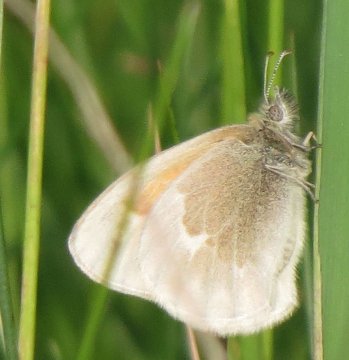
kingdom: Animalia
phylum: Arthropoda
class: Insecta
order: Lepidoptera
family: Nymphalidae
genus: Coenonympha
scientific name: Coenonympha tullia
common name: Large Heath
